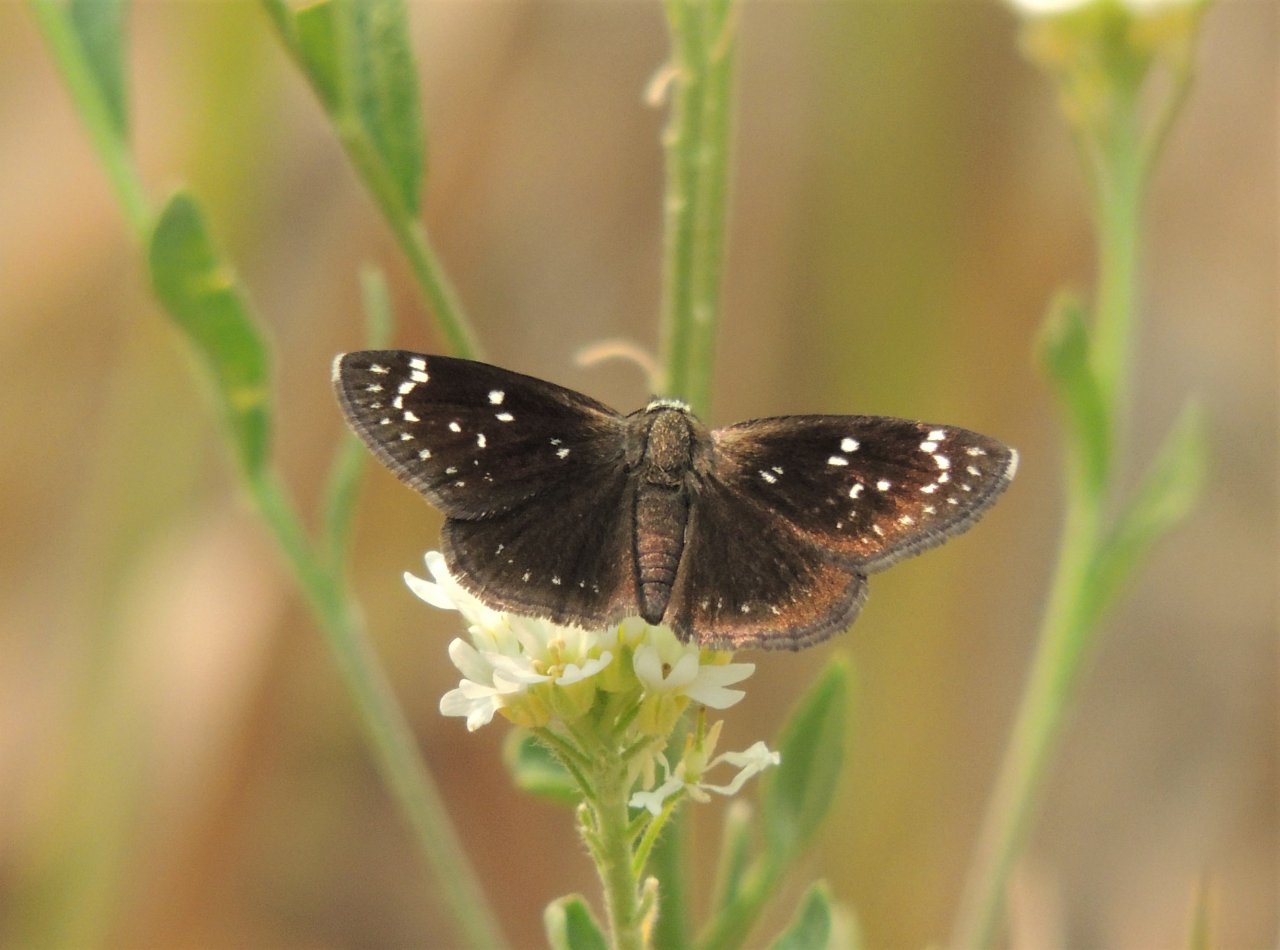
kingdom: Animalia
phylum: Arthropoda
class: Insecta
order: Lepidoptera
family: Hesperiidae
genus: Pholisora
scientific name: Pholisora catullus
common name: Common Sootywing
